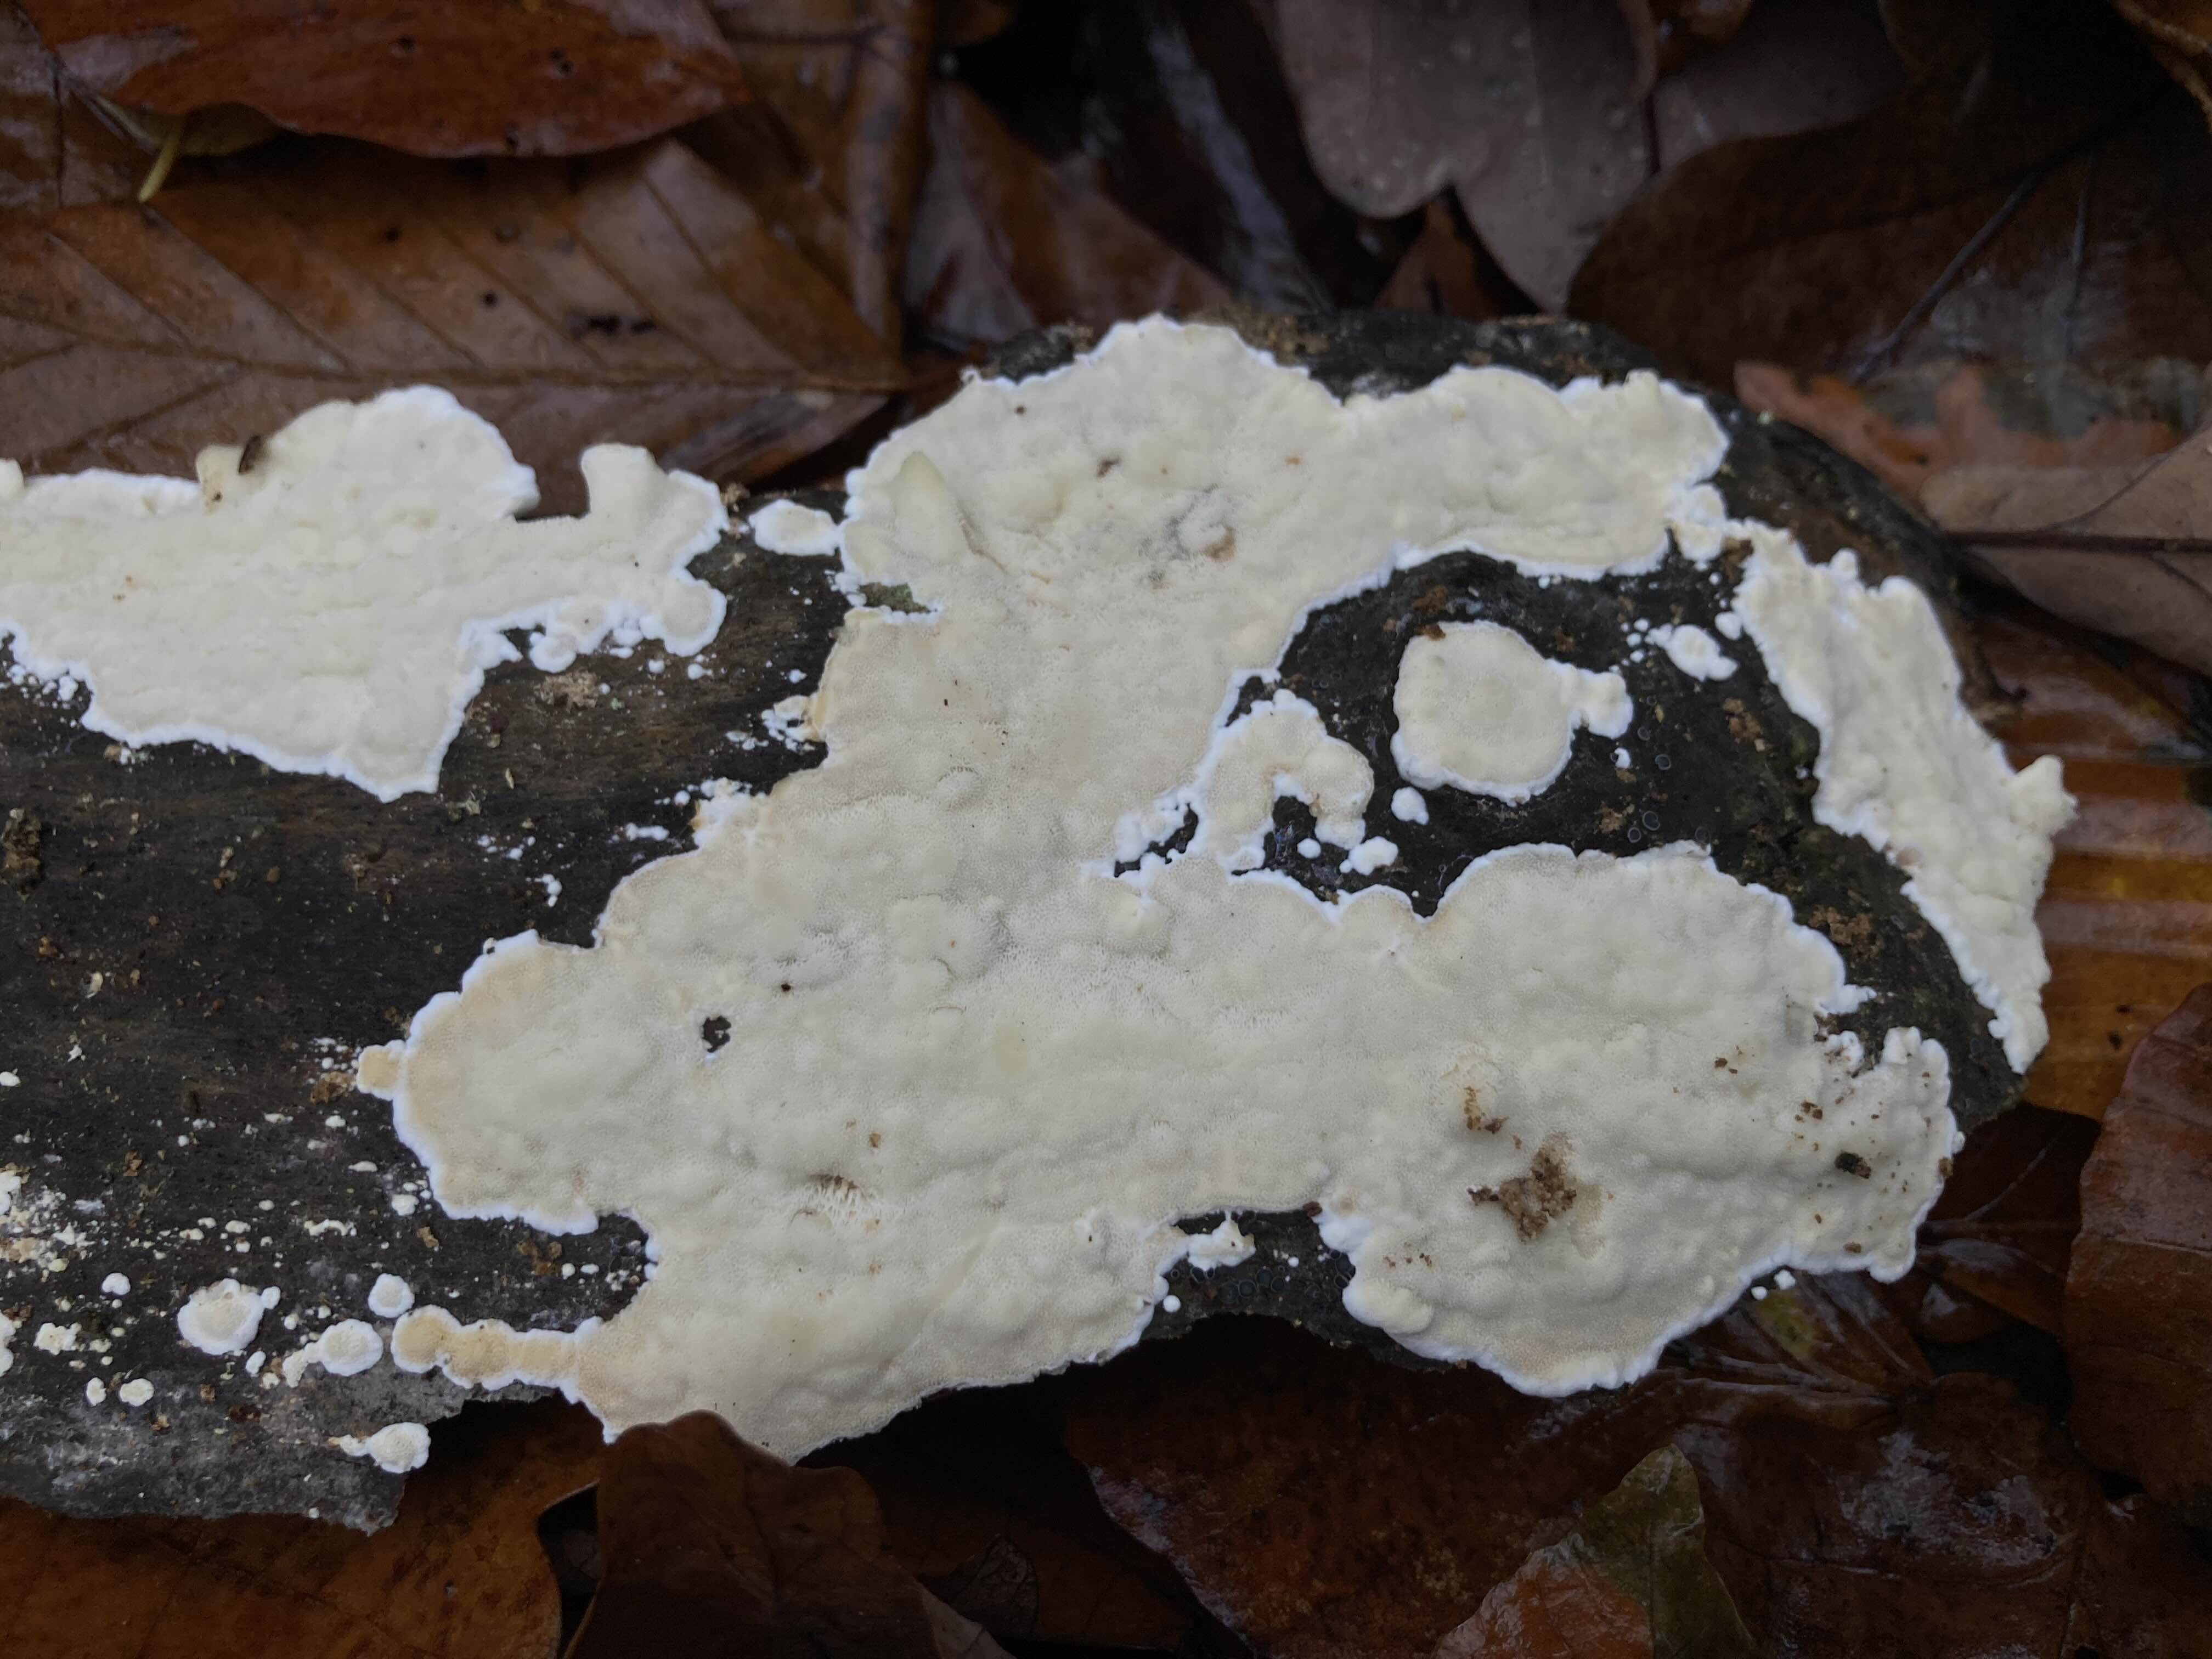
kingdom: Fungi
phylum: Basidiomycota
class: Agaricomycetes
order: Polyporales
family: Irpicaceae
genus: Gloeoporus
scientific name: Gloeoporus pannocinctus
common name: grøngul foldporesvamp
